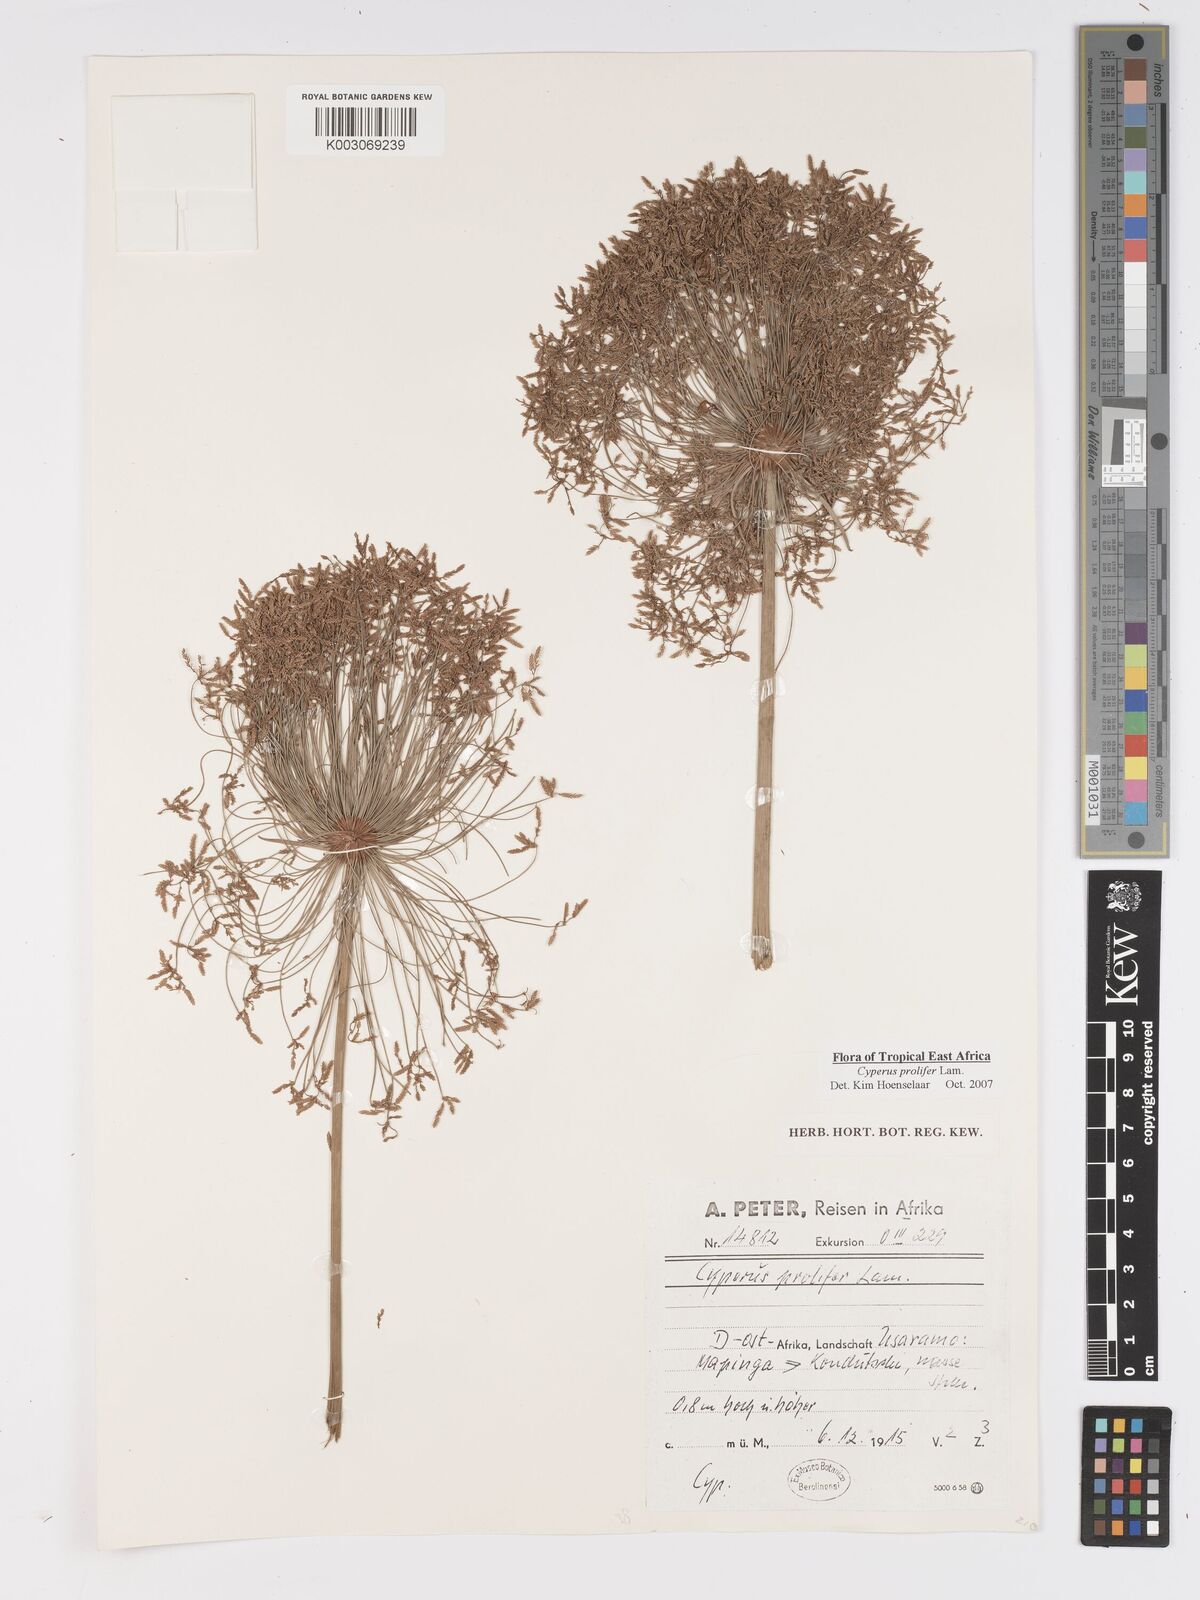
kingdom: Plantae
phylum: Tracheophyta
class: Liliopsida
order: Poales
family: Cyperaceae
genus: Cyperus
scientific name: Cyperus prolifer
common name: Miniature flatsedge
